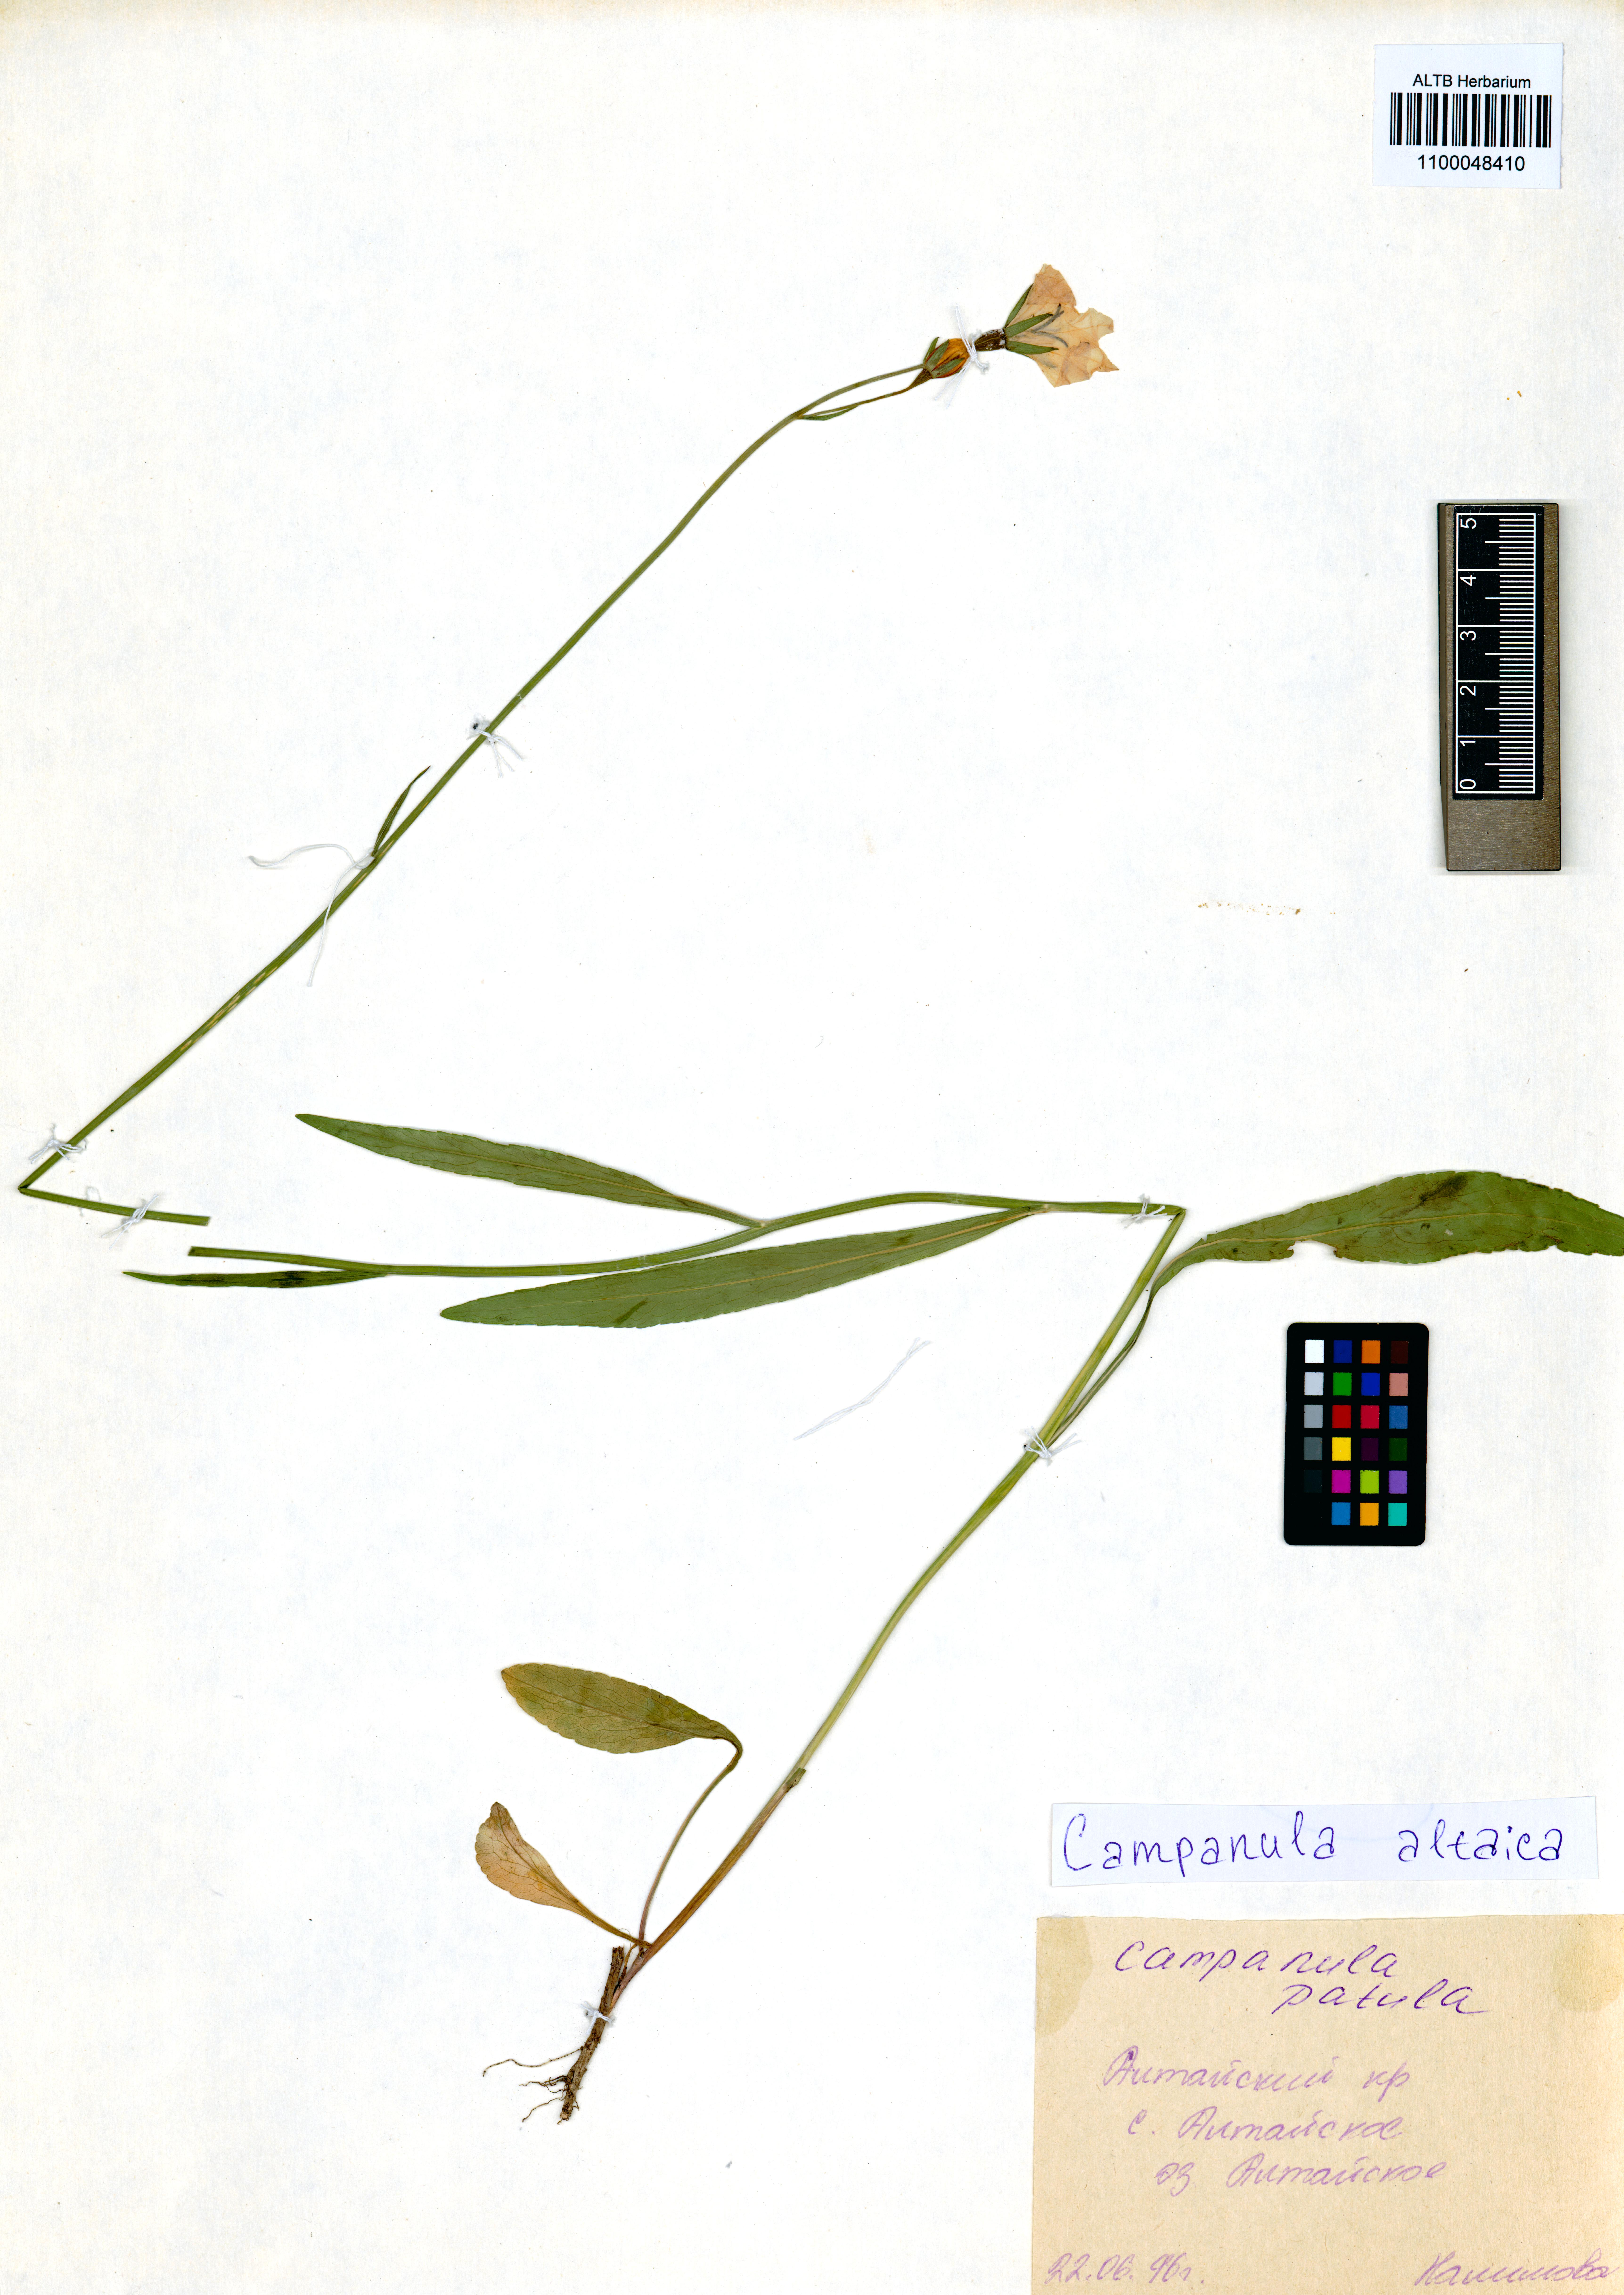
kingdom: Plantae
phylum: Tracheophyta
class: Magnoliopsida
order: Asterales
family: Campanulaceae
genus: Campanula
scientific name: Campanula stevenii
